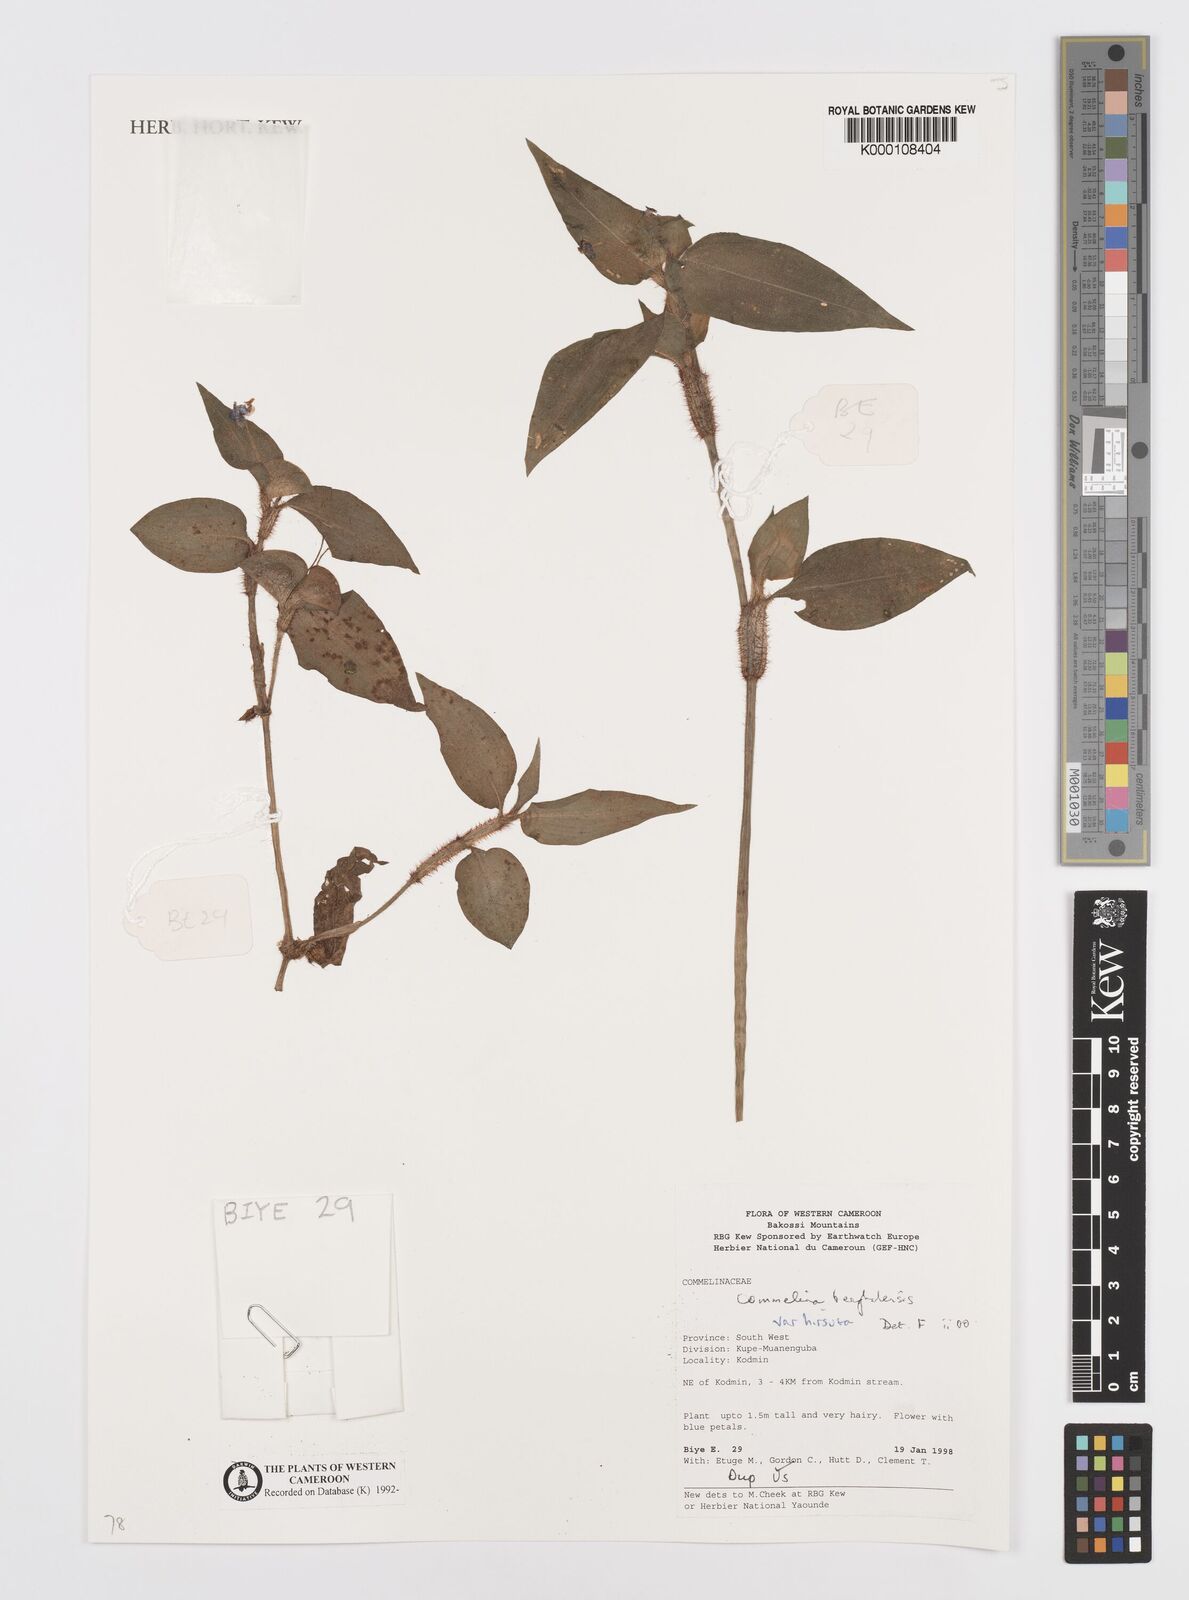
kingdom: Plantae
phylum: Tracheophyta
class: Liliopsida
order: Commelinales
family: Commelinaceae
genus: Commelina
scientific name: Commelina benghalensis
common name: Jio
